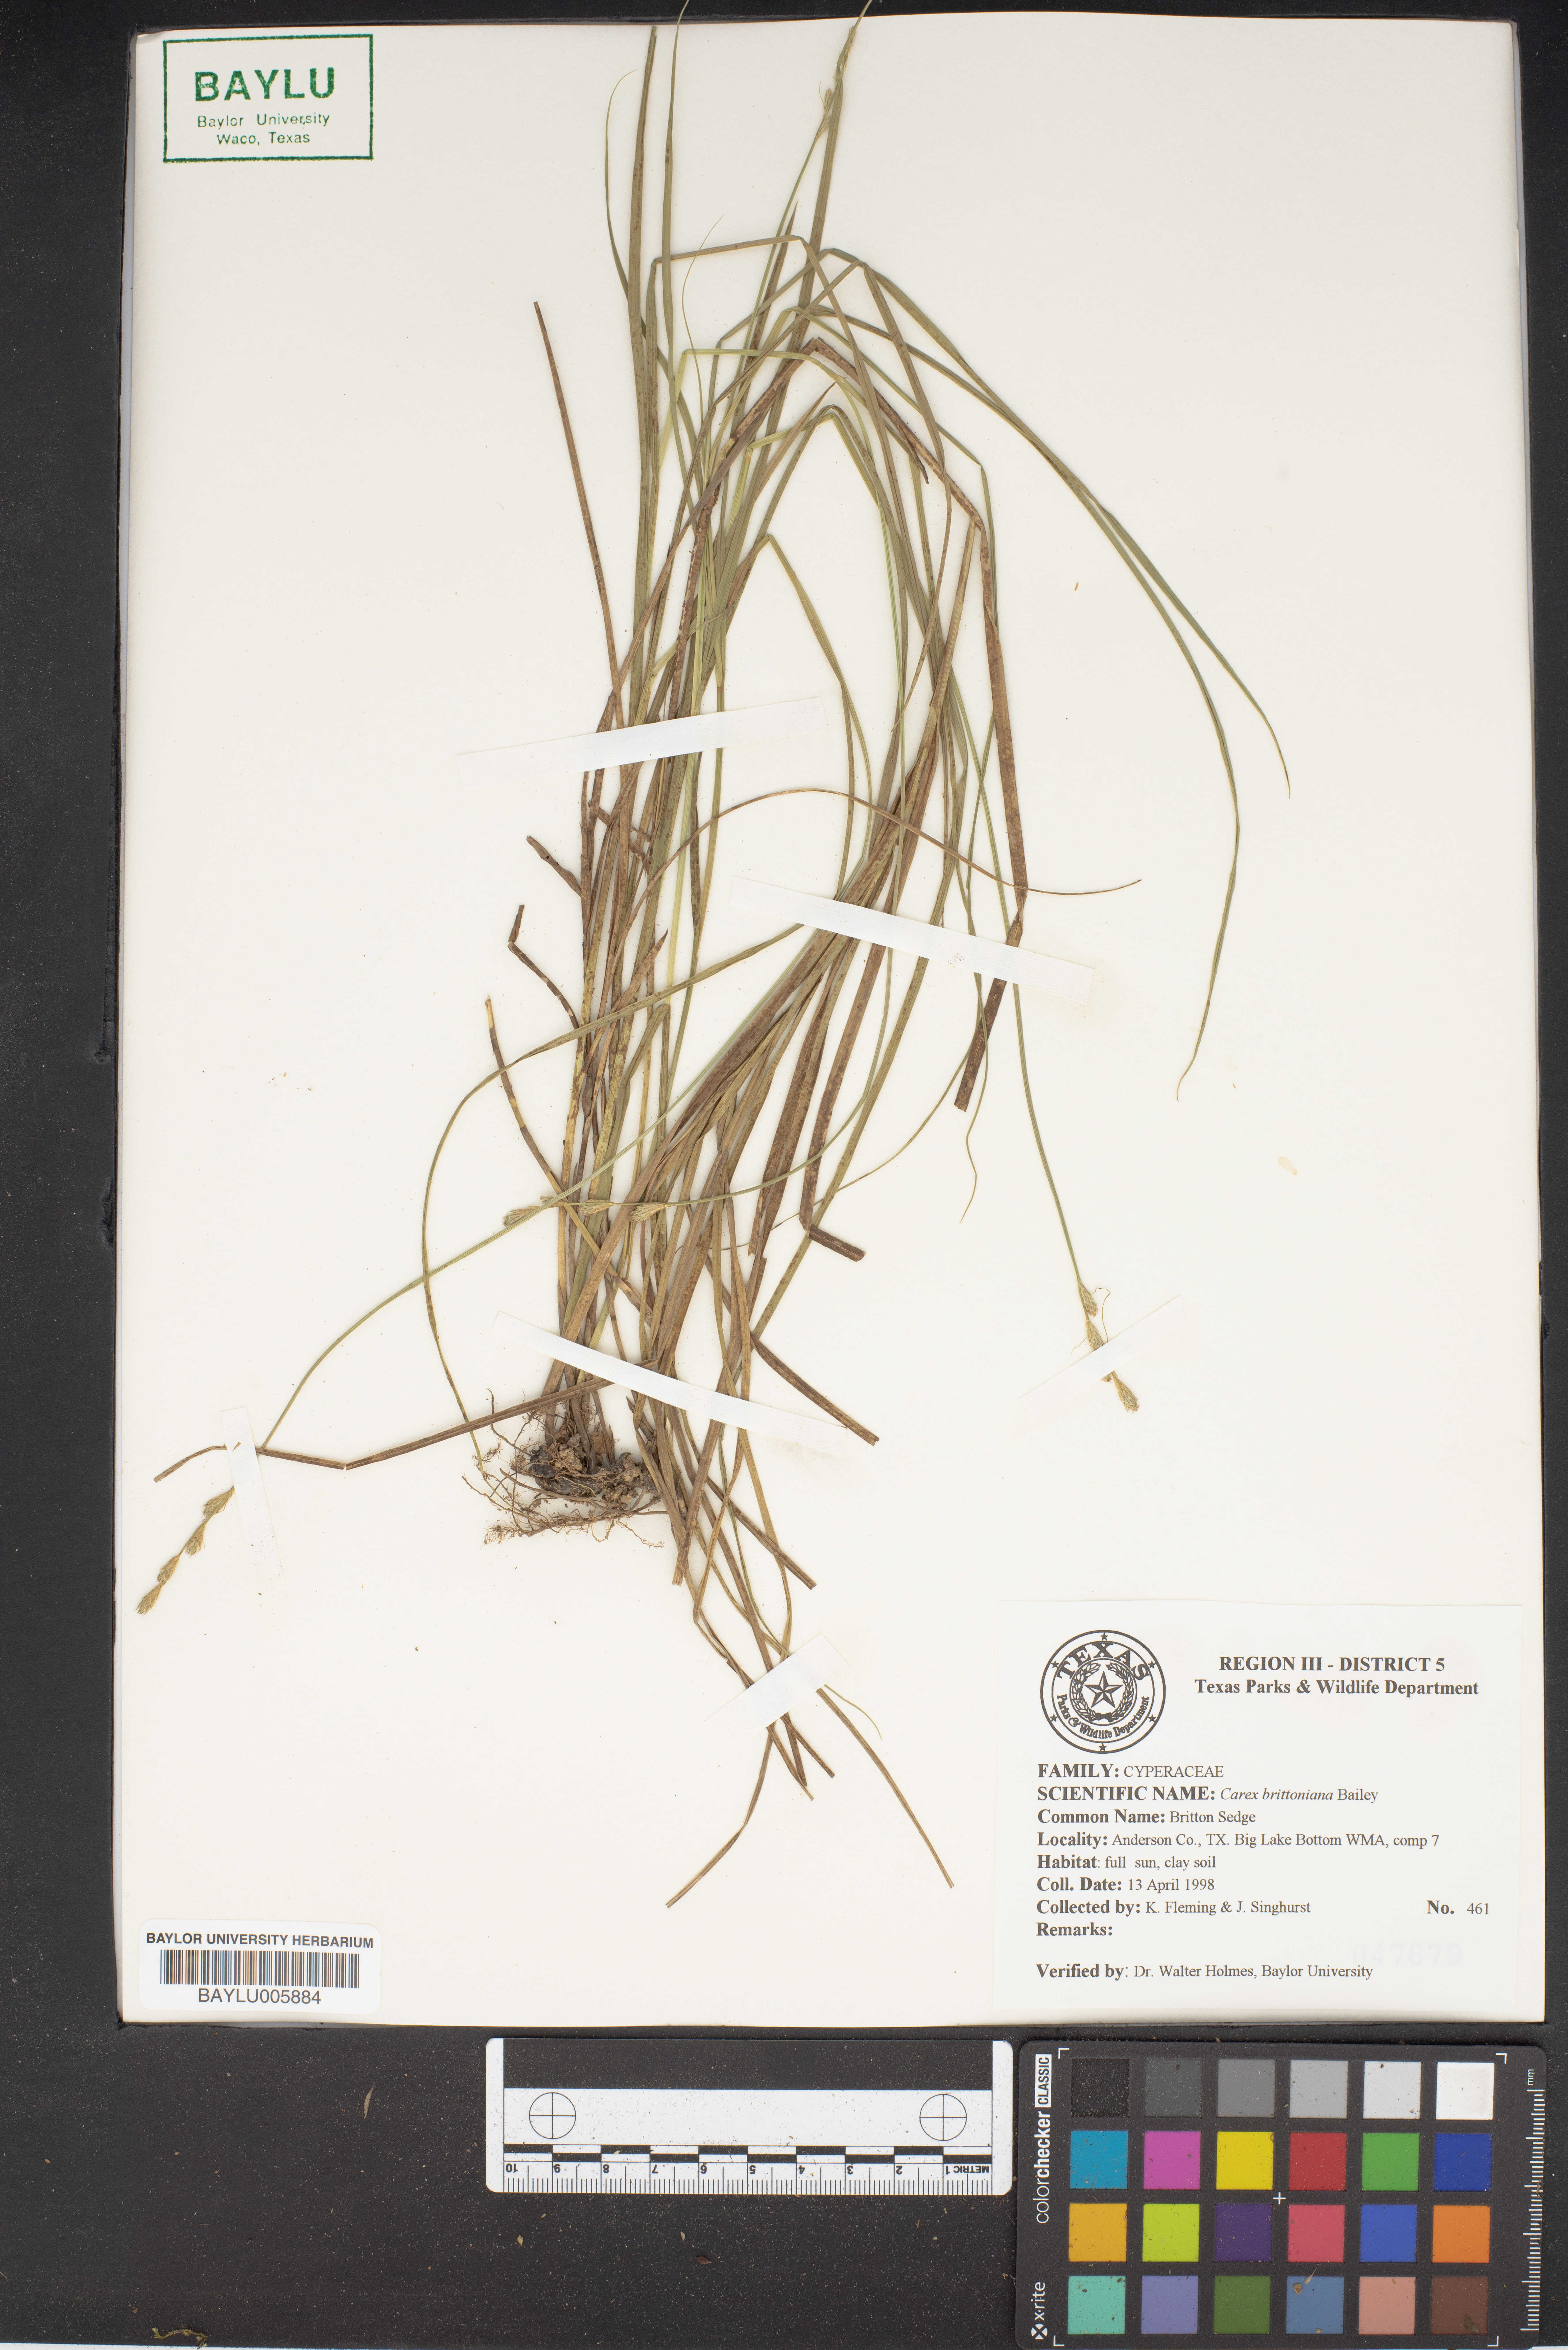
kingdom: Plantae
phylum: Tracheophyta
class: Liliopsida
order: Poales
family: Cyperaceae
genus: Carex
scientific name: Carex tetrastachya
